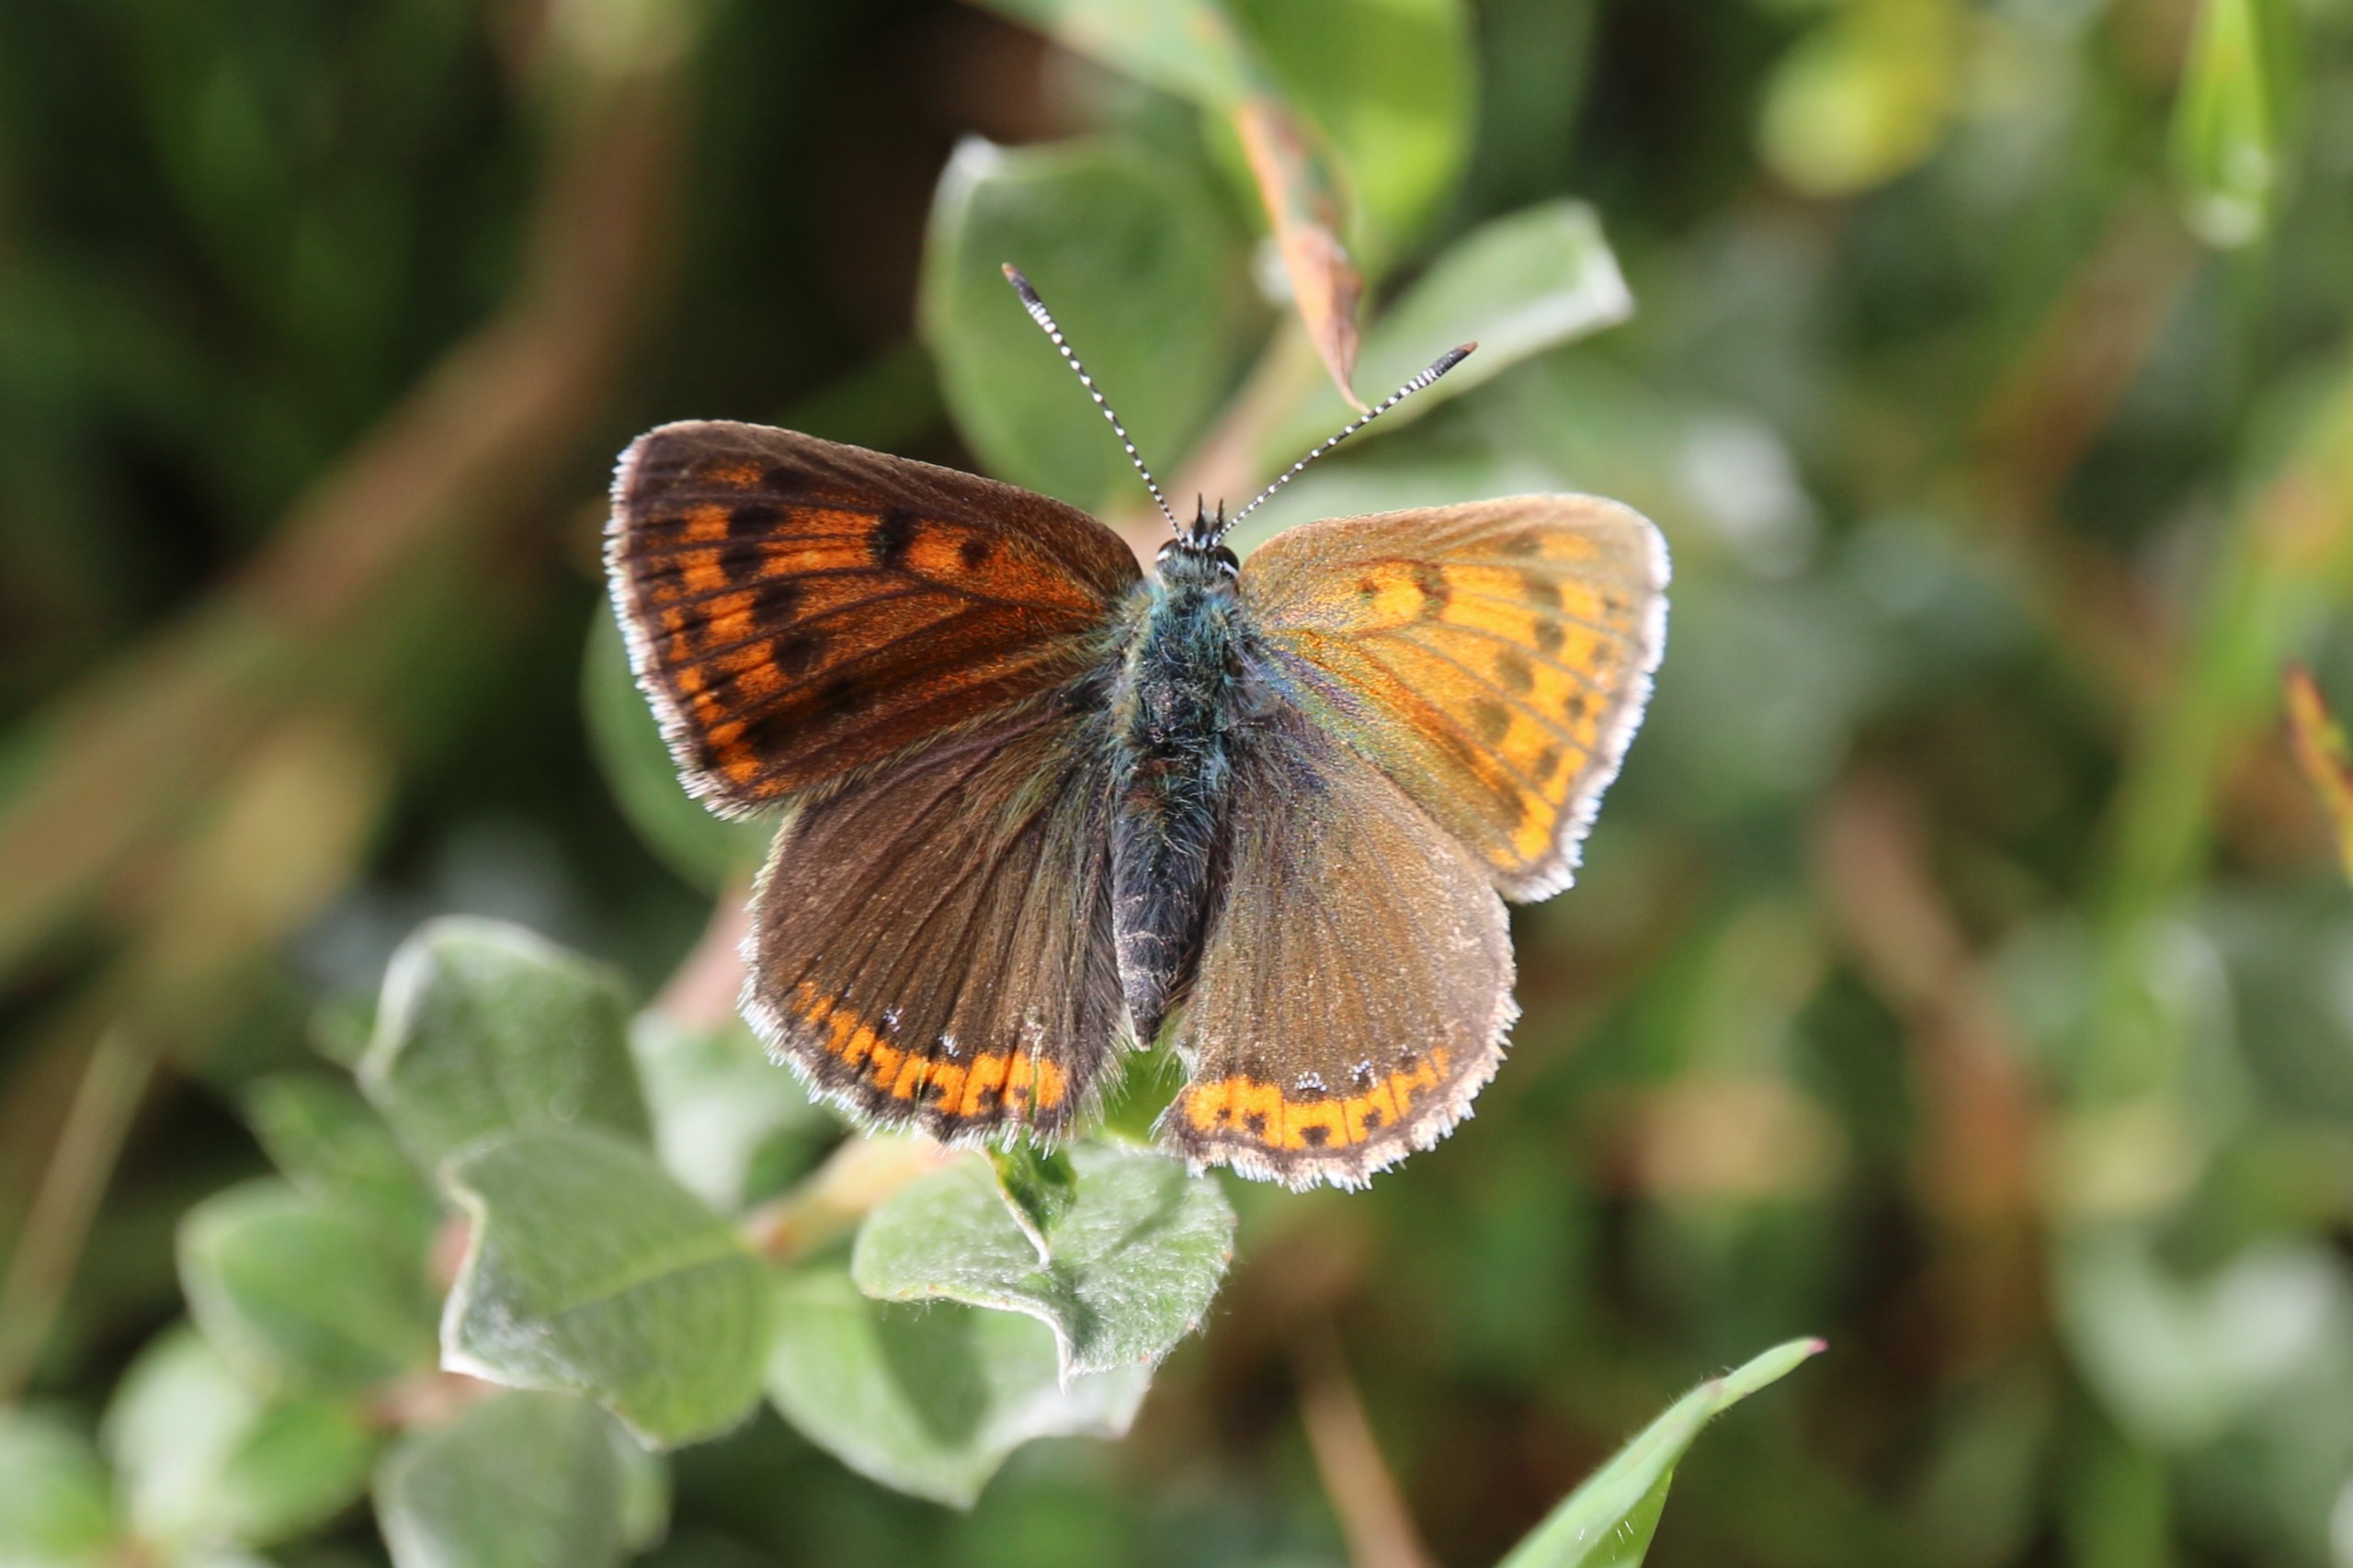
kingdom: Animalia
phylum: Arthropoda
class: Insecta
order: Lepidoptera
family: Lycaenidae
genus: Palaeochrysophanus
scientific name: Palaeochrysophanus hippothoe
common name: Violetrandet ildfugl
